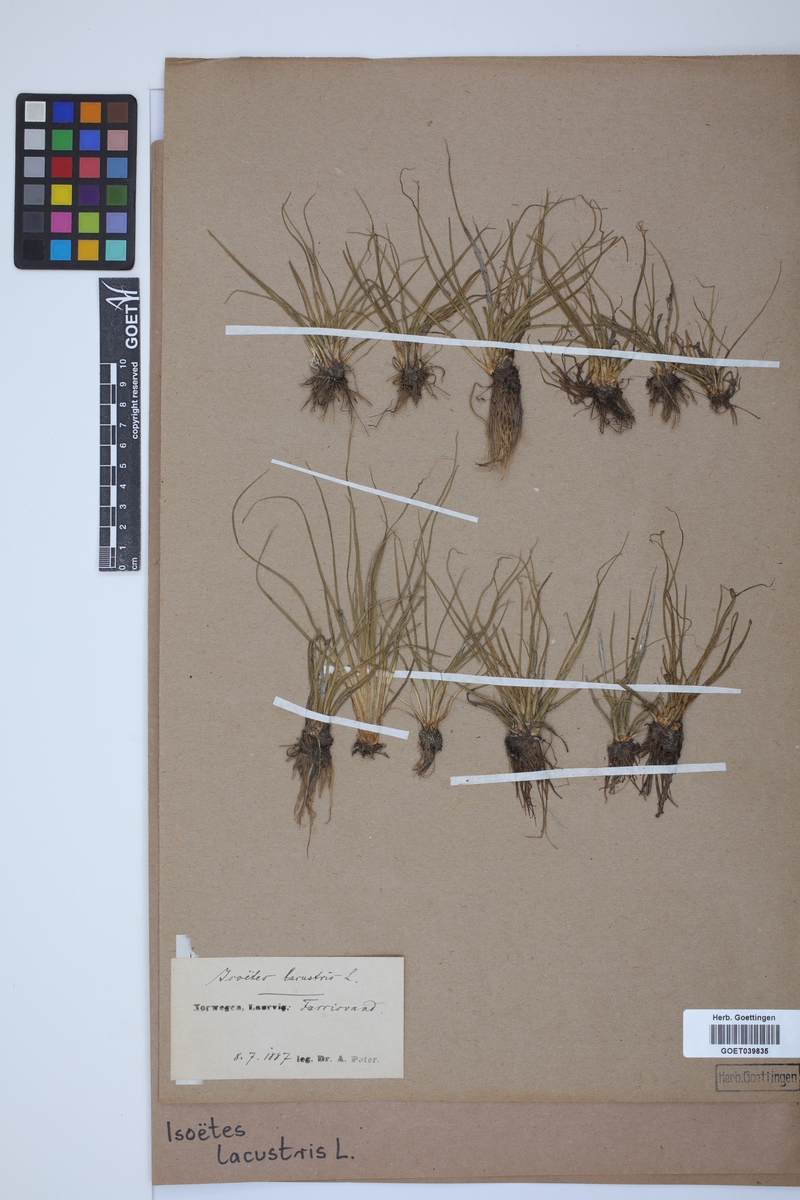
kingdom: Plantae
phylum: Tracheophyta
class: Lycopodiopsida
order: Isoetales
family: Isoetaceae
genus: Isoetes
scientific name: Isoetes lacustris
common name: Common quillwort
